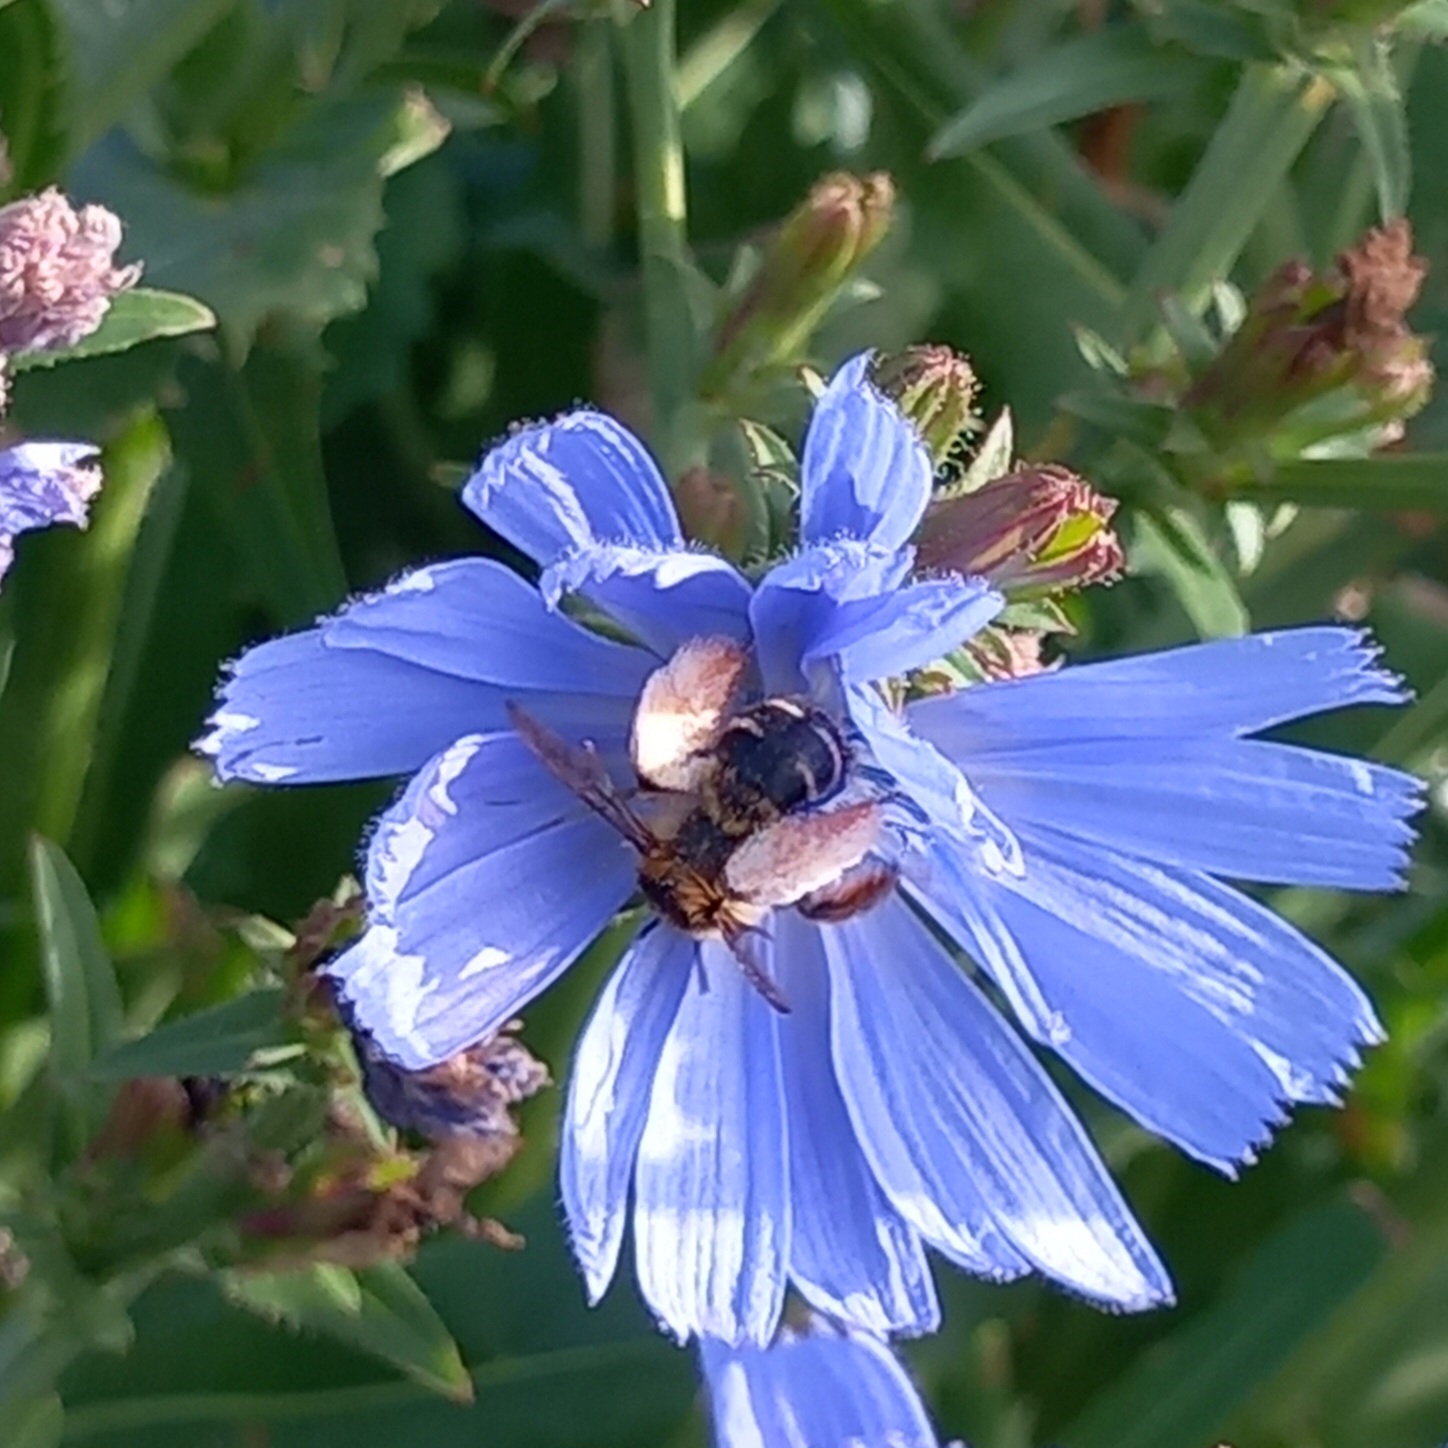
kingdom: Animalia
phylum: Arthropoda
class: Insecta
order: Hymenoptera
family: Melittidae
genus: Dasypoda
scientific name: Dasypoda hirtipes
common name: Pragtbuksebi
